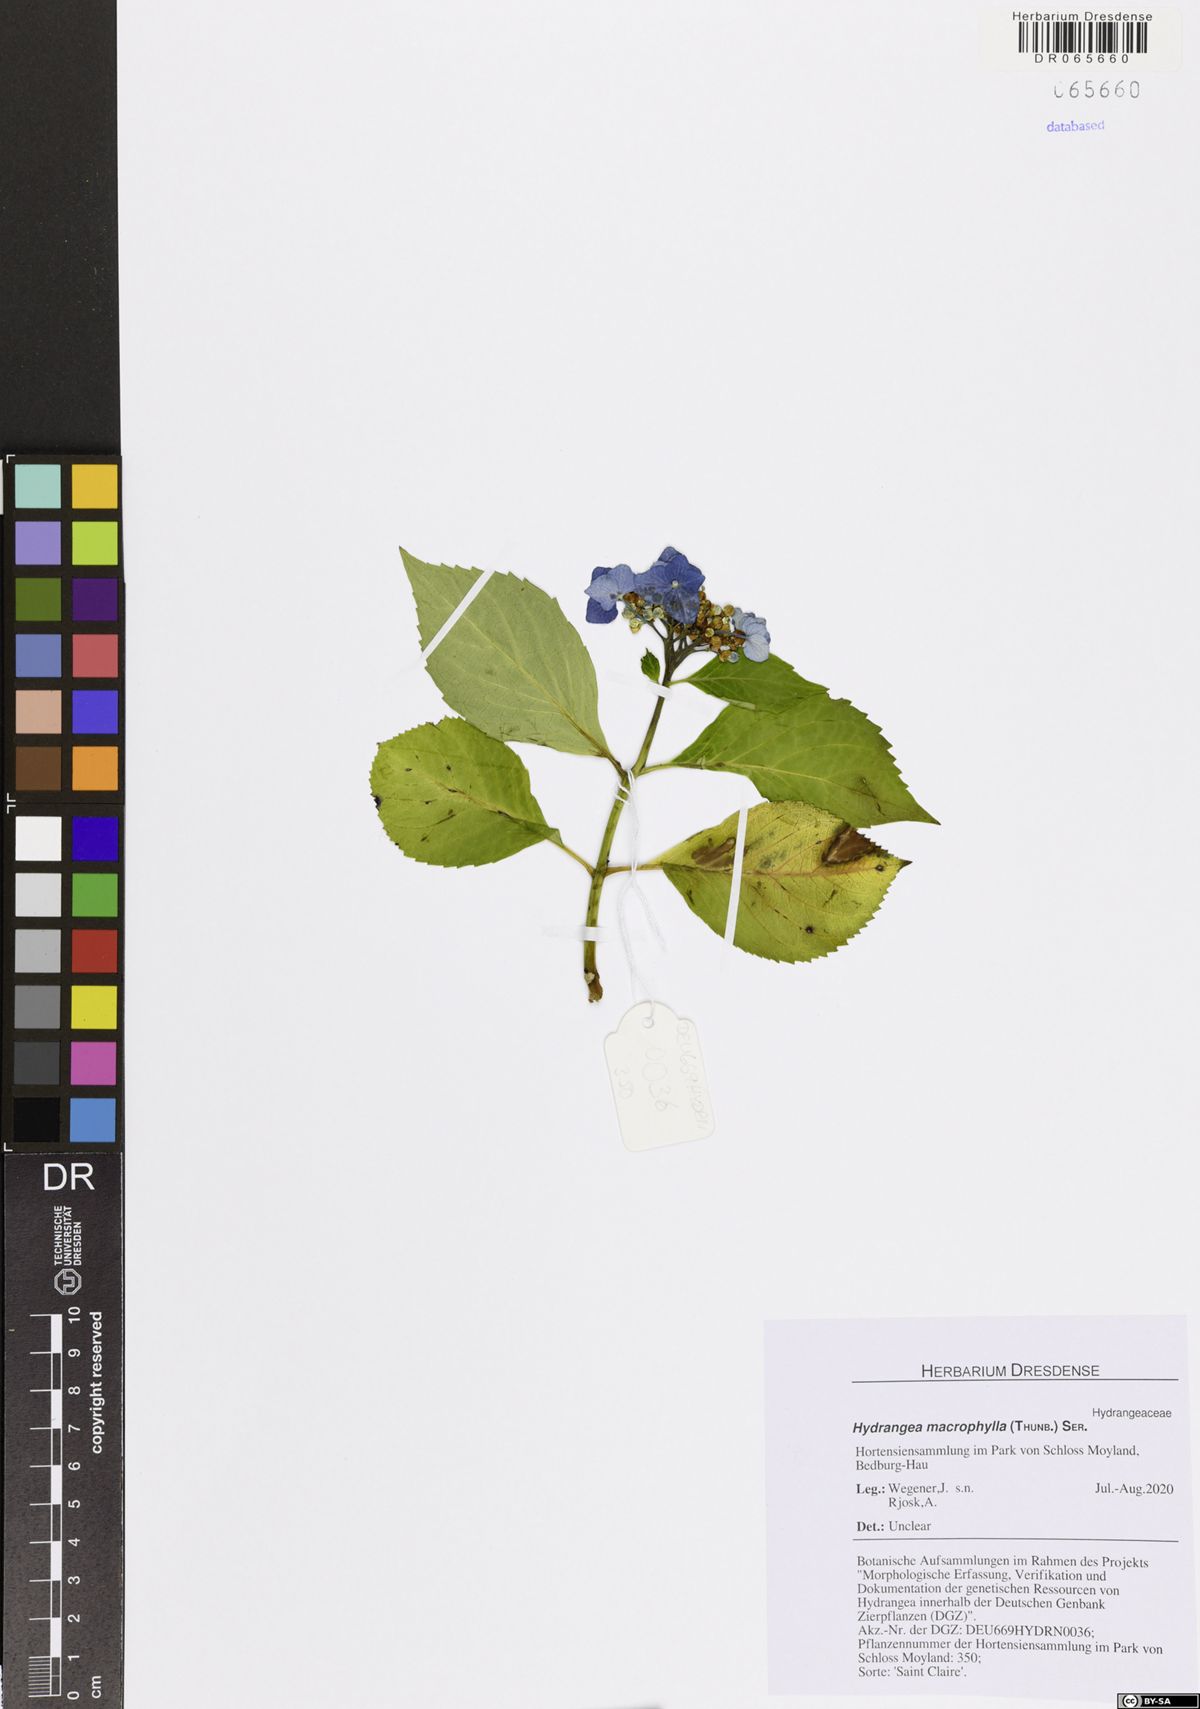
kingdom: Plantae
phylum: Tracheophyta
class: Magnoliopsida
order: Cornales
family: Hydrangeaceae
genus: Hydrangea
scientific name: Hydrangea macrophylla
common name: Hydrangea
